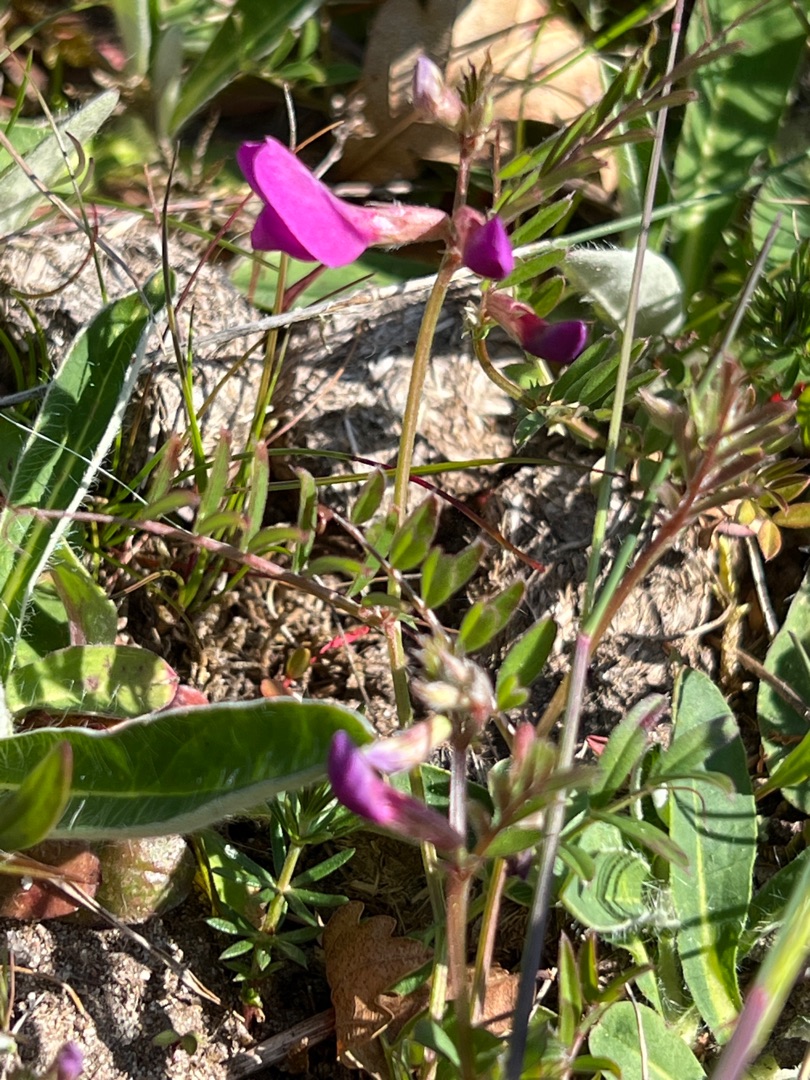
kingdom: Plantae
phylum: Tracheophyta
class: Magnoliopsida
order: Fabales
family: Fabaceae
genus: Vicia
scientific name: Vicia sativa
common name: Foder-vikke
